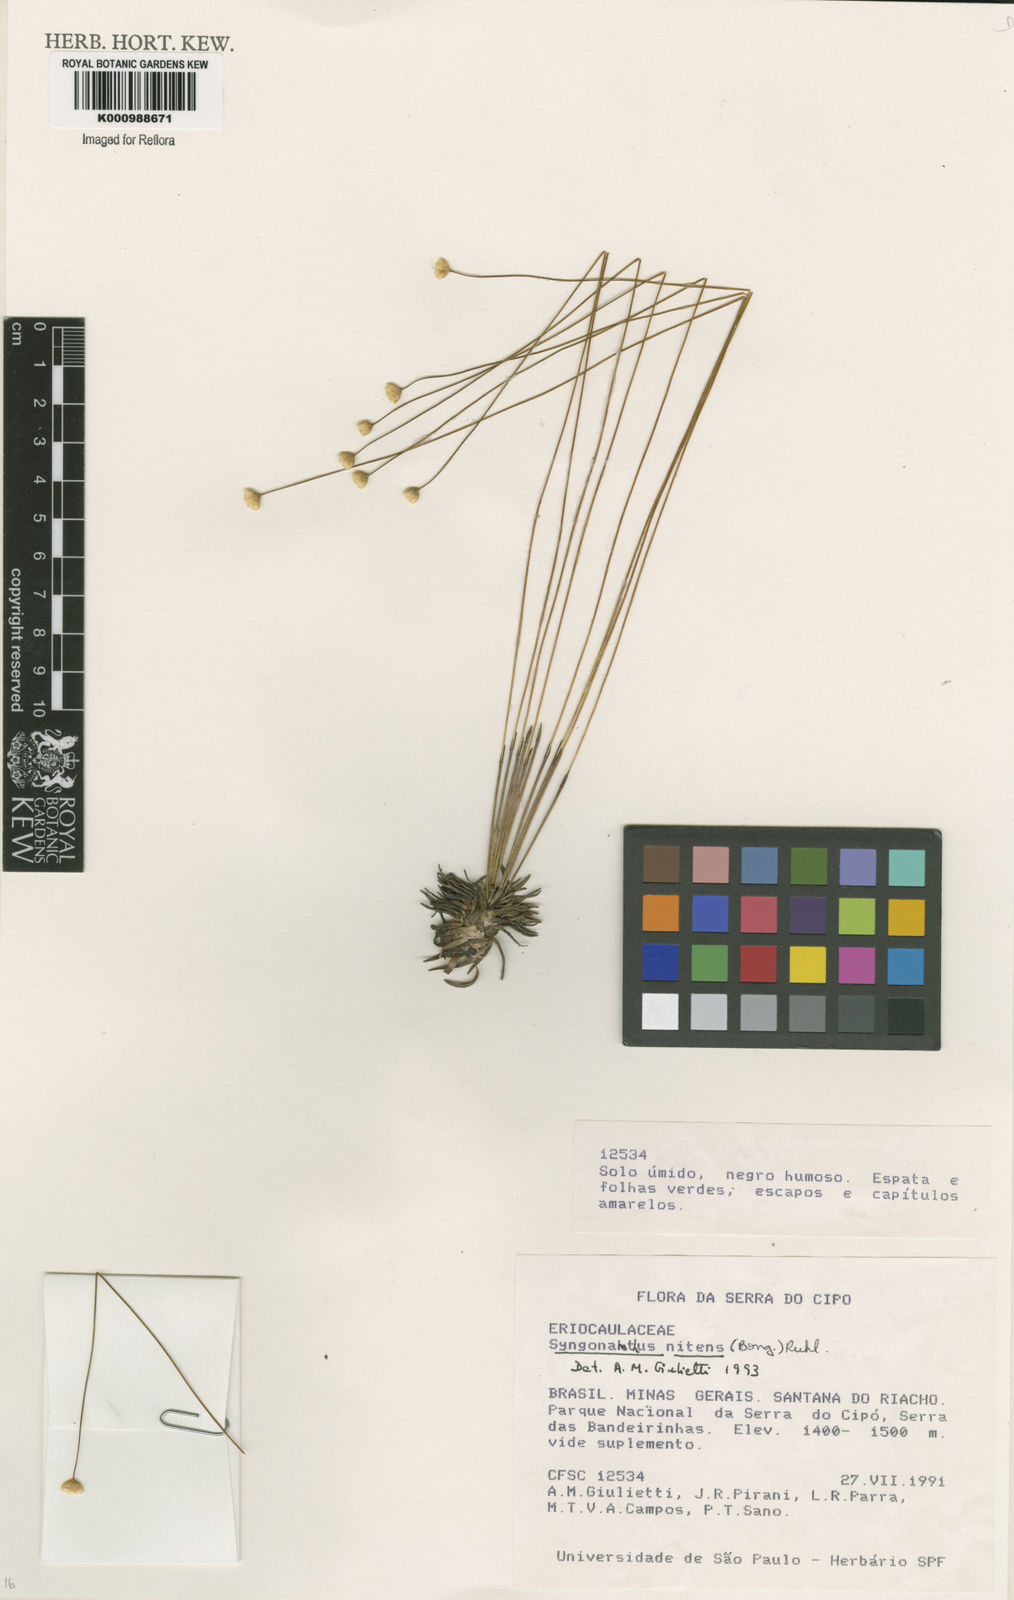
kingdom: Plantae
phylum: Tracheophyta
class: Liliopsida
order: Poales
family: Eriocaulaceae
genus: Syngonanthus
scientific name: Syngonanthus nitens
